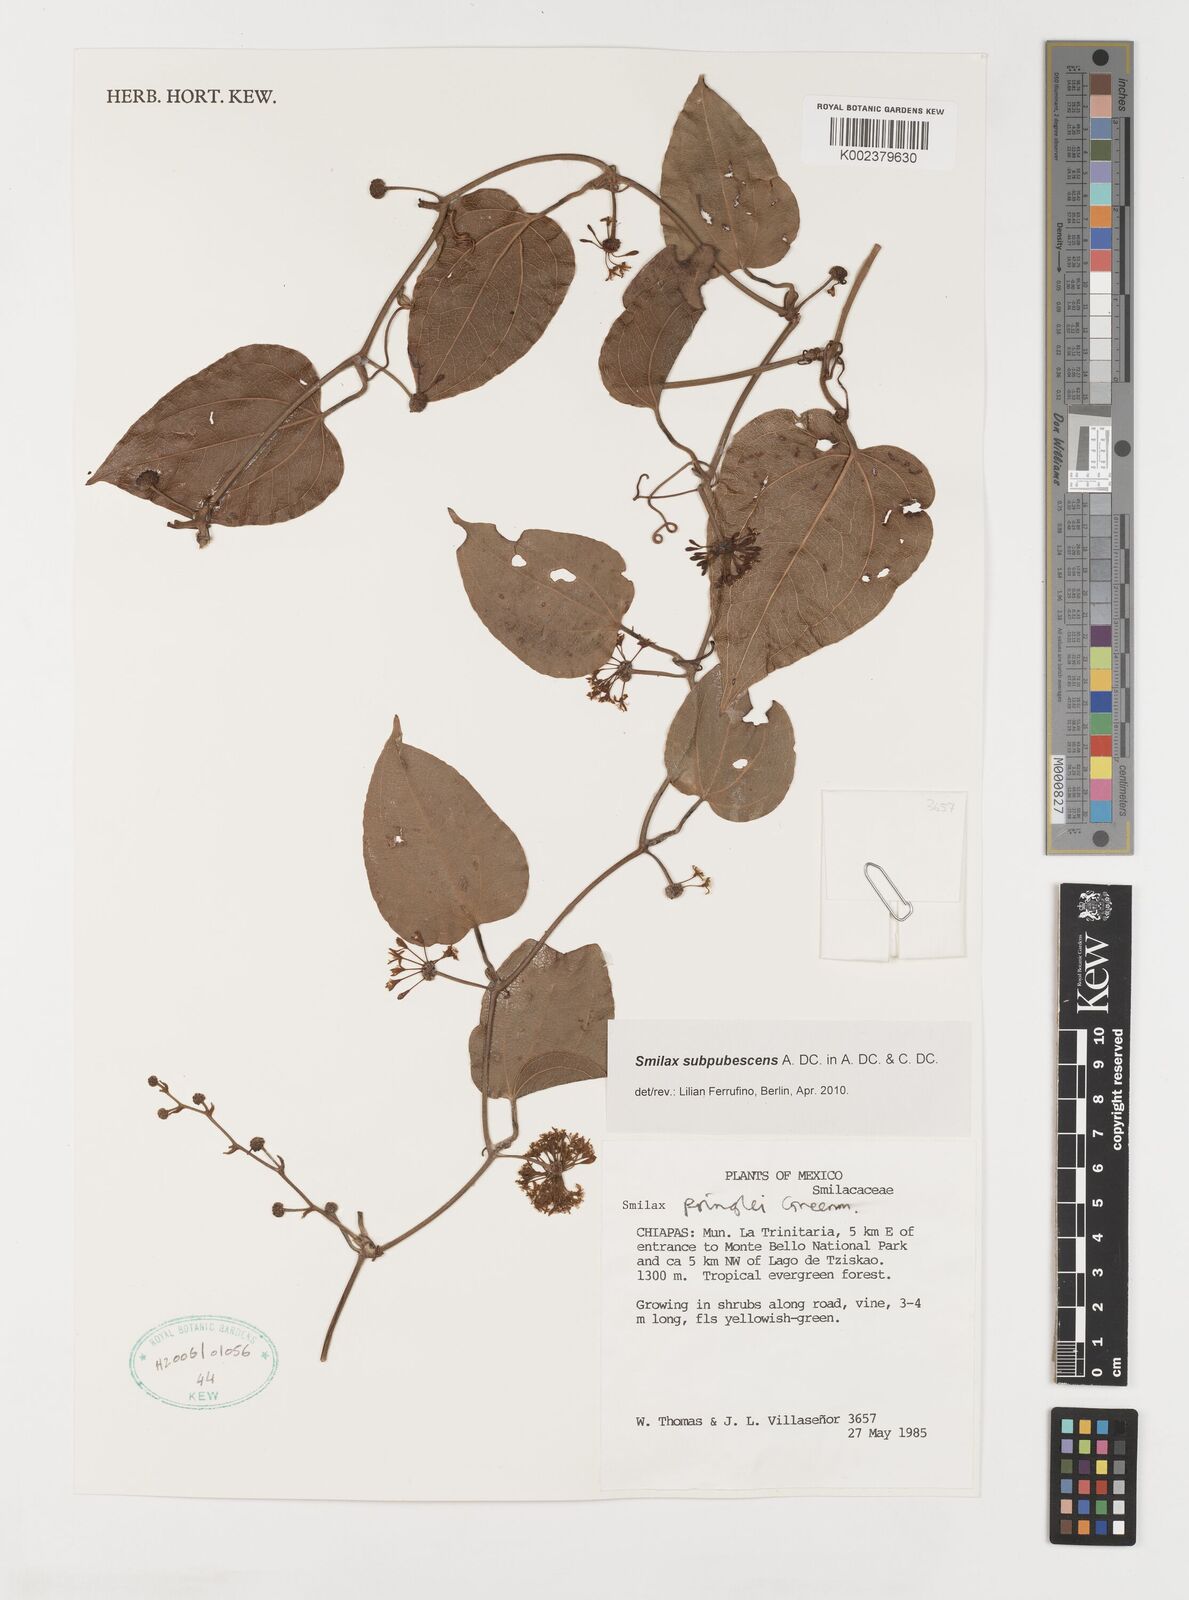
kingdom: Plantae
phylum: Tracheophyta
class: Liliopsida
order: Liliales
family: Smilacaceae
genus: Smilax
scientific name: Smilax subpubescens
